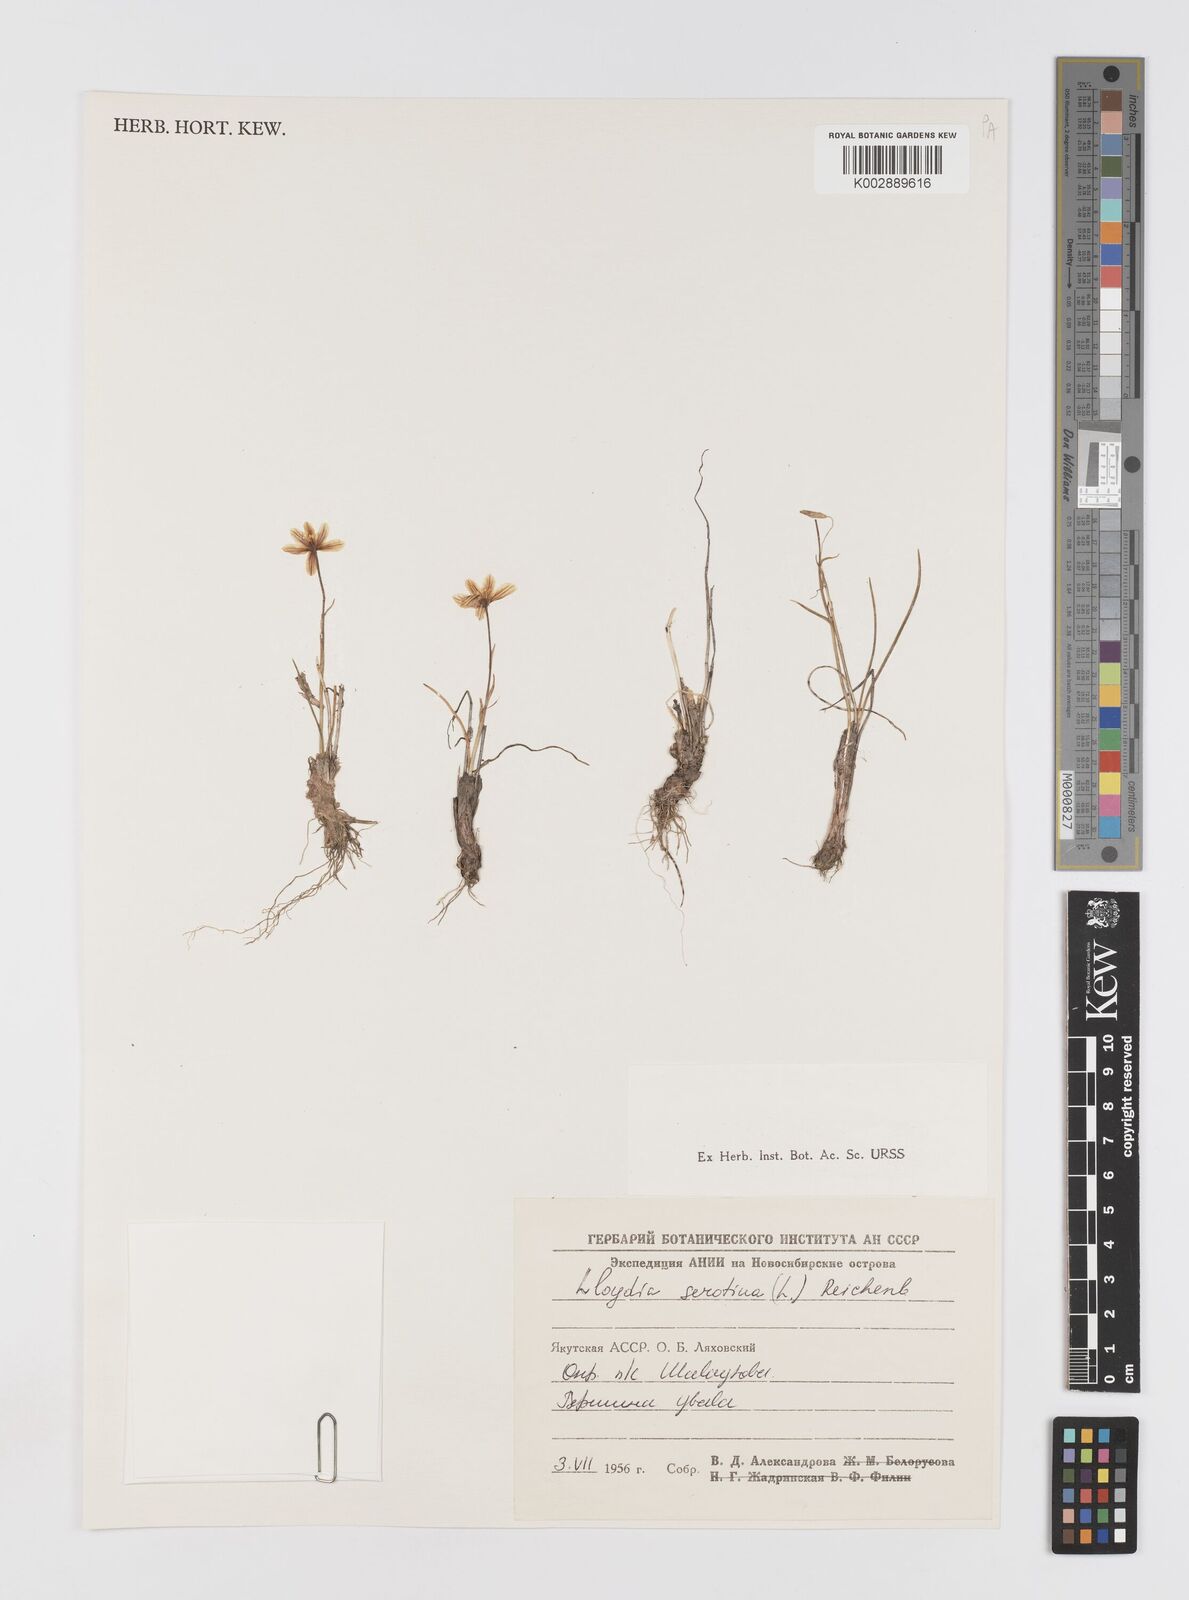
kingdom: Plantae
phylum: Tracheophyta
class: Liliopsida
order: Liliales
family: Liliaceae
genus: Gagea
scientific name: Gagea serotina
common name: Snowdon lily
